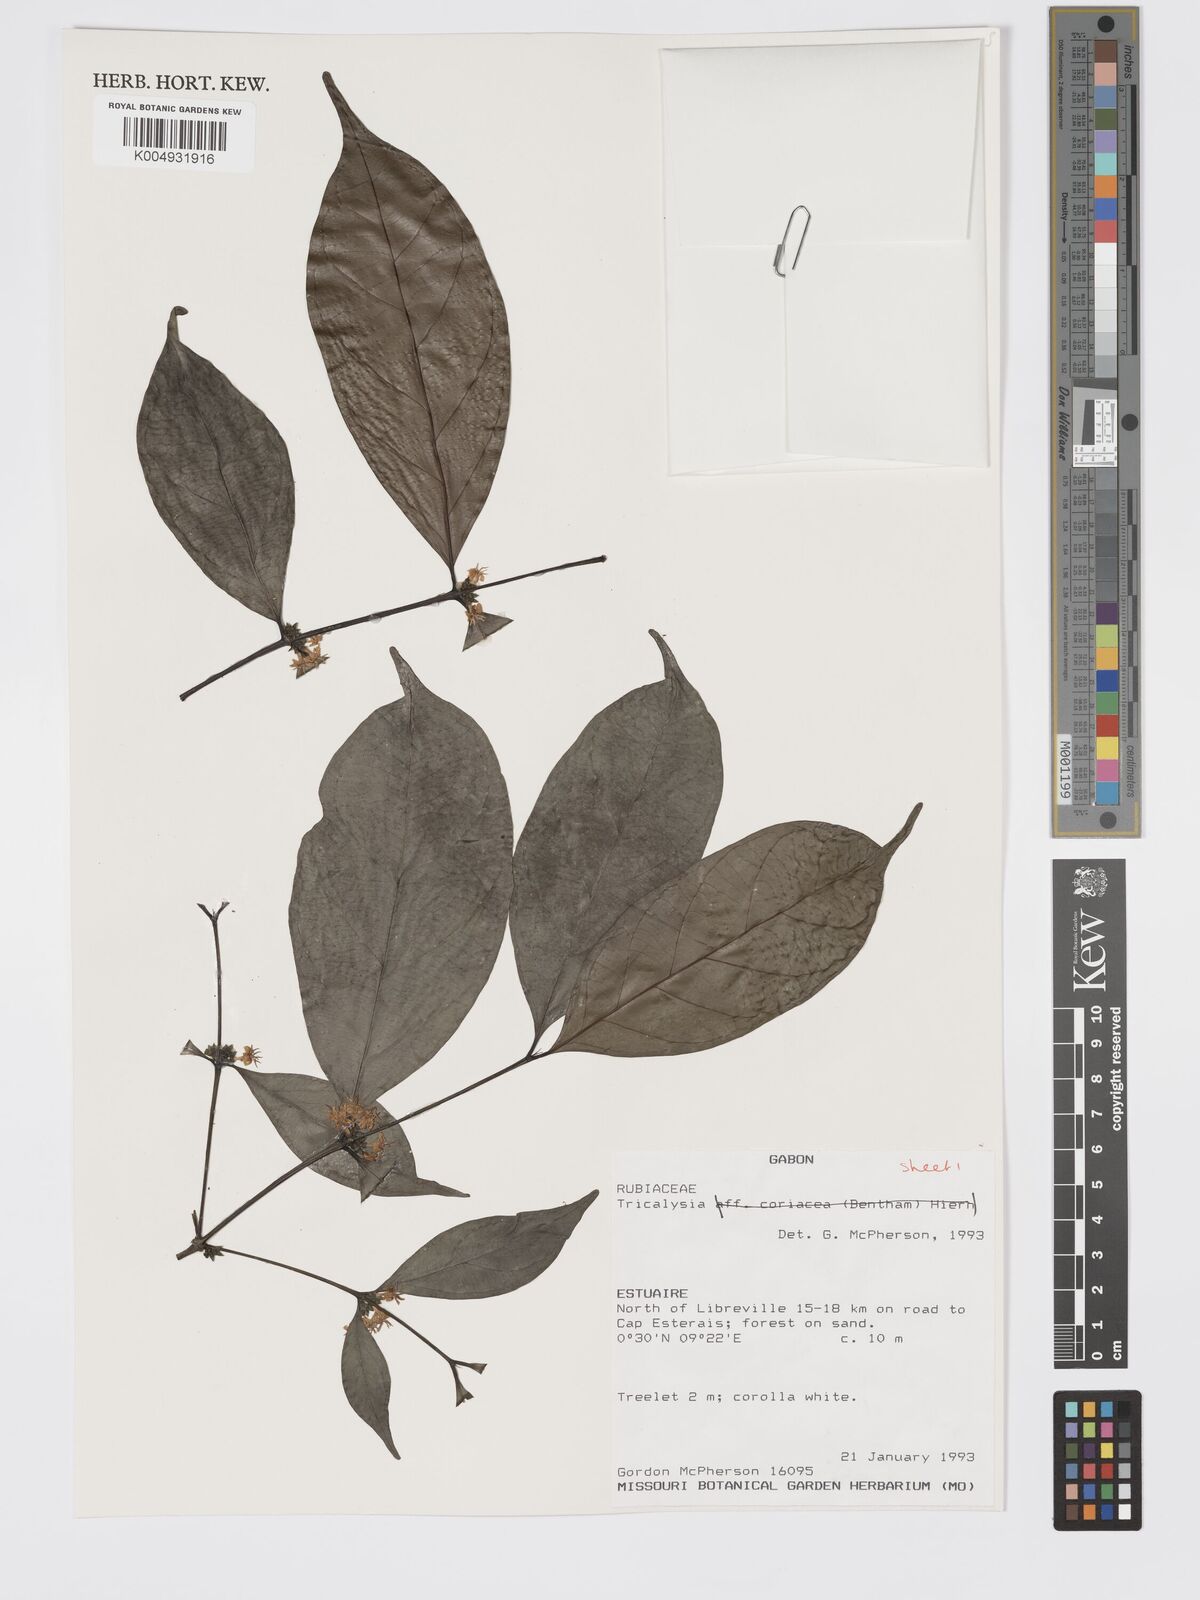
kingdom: Plantae
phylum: Tracheophyta
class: Magnoliopsida
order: Gentianales
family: Rubiaceae
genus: Tricalysia
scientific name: Tricalysia
